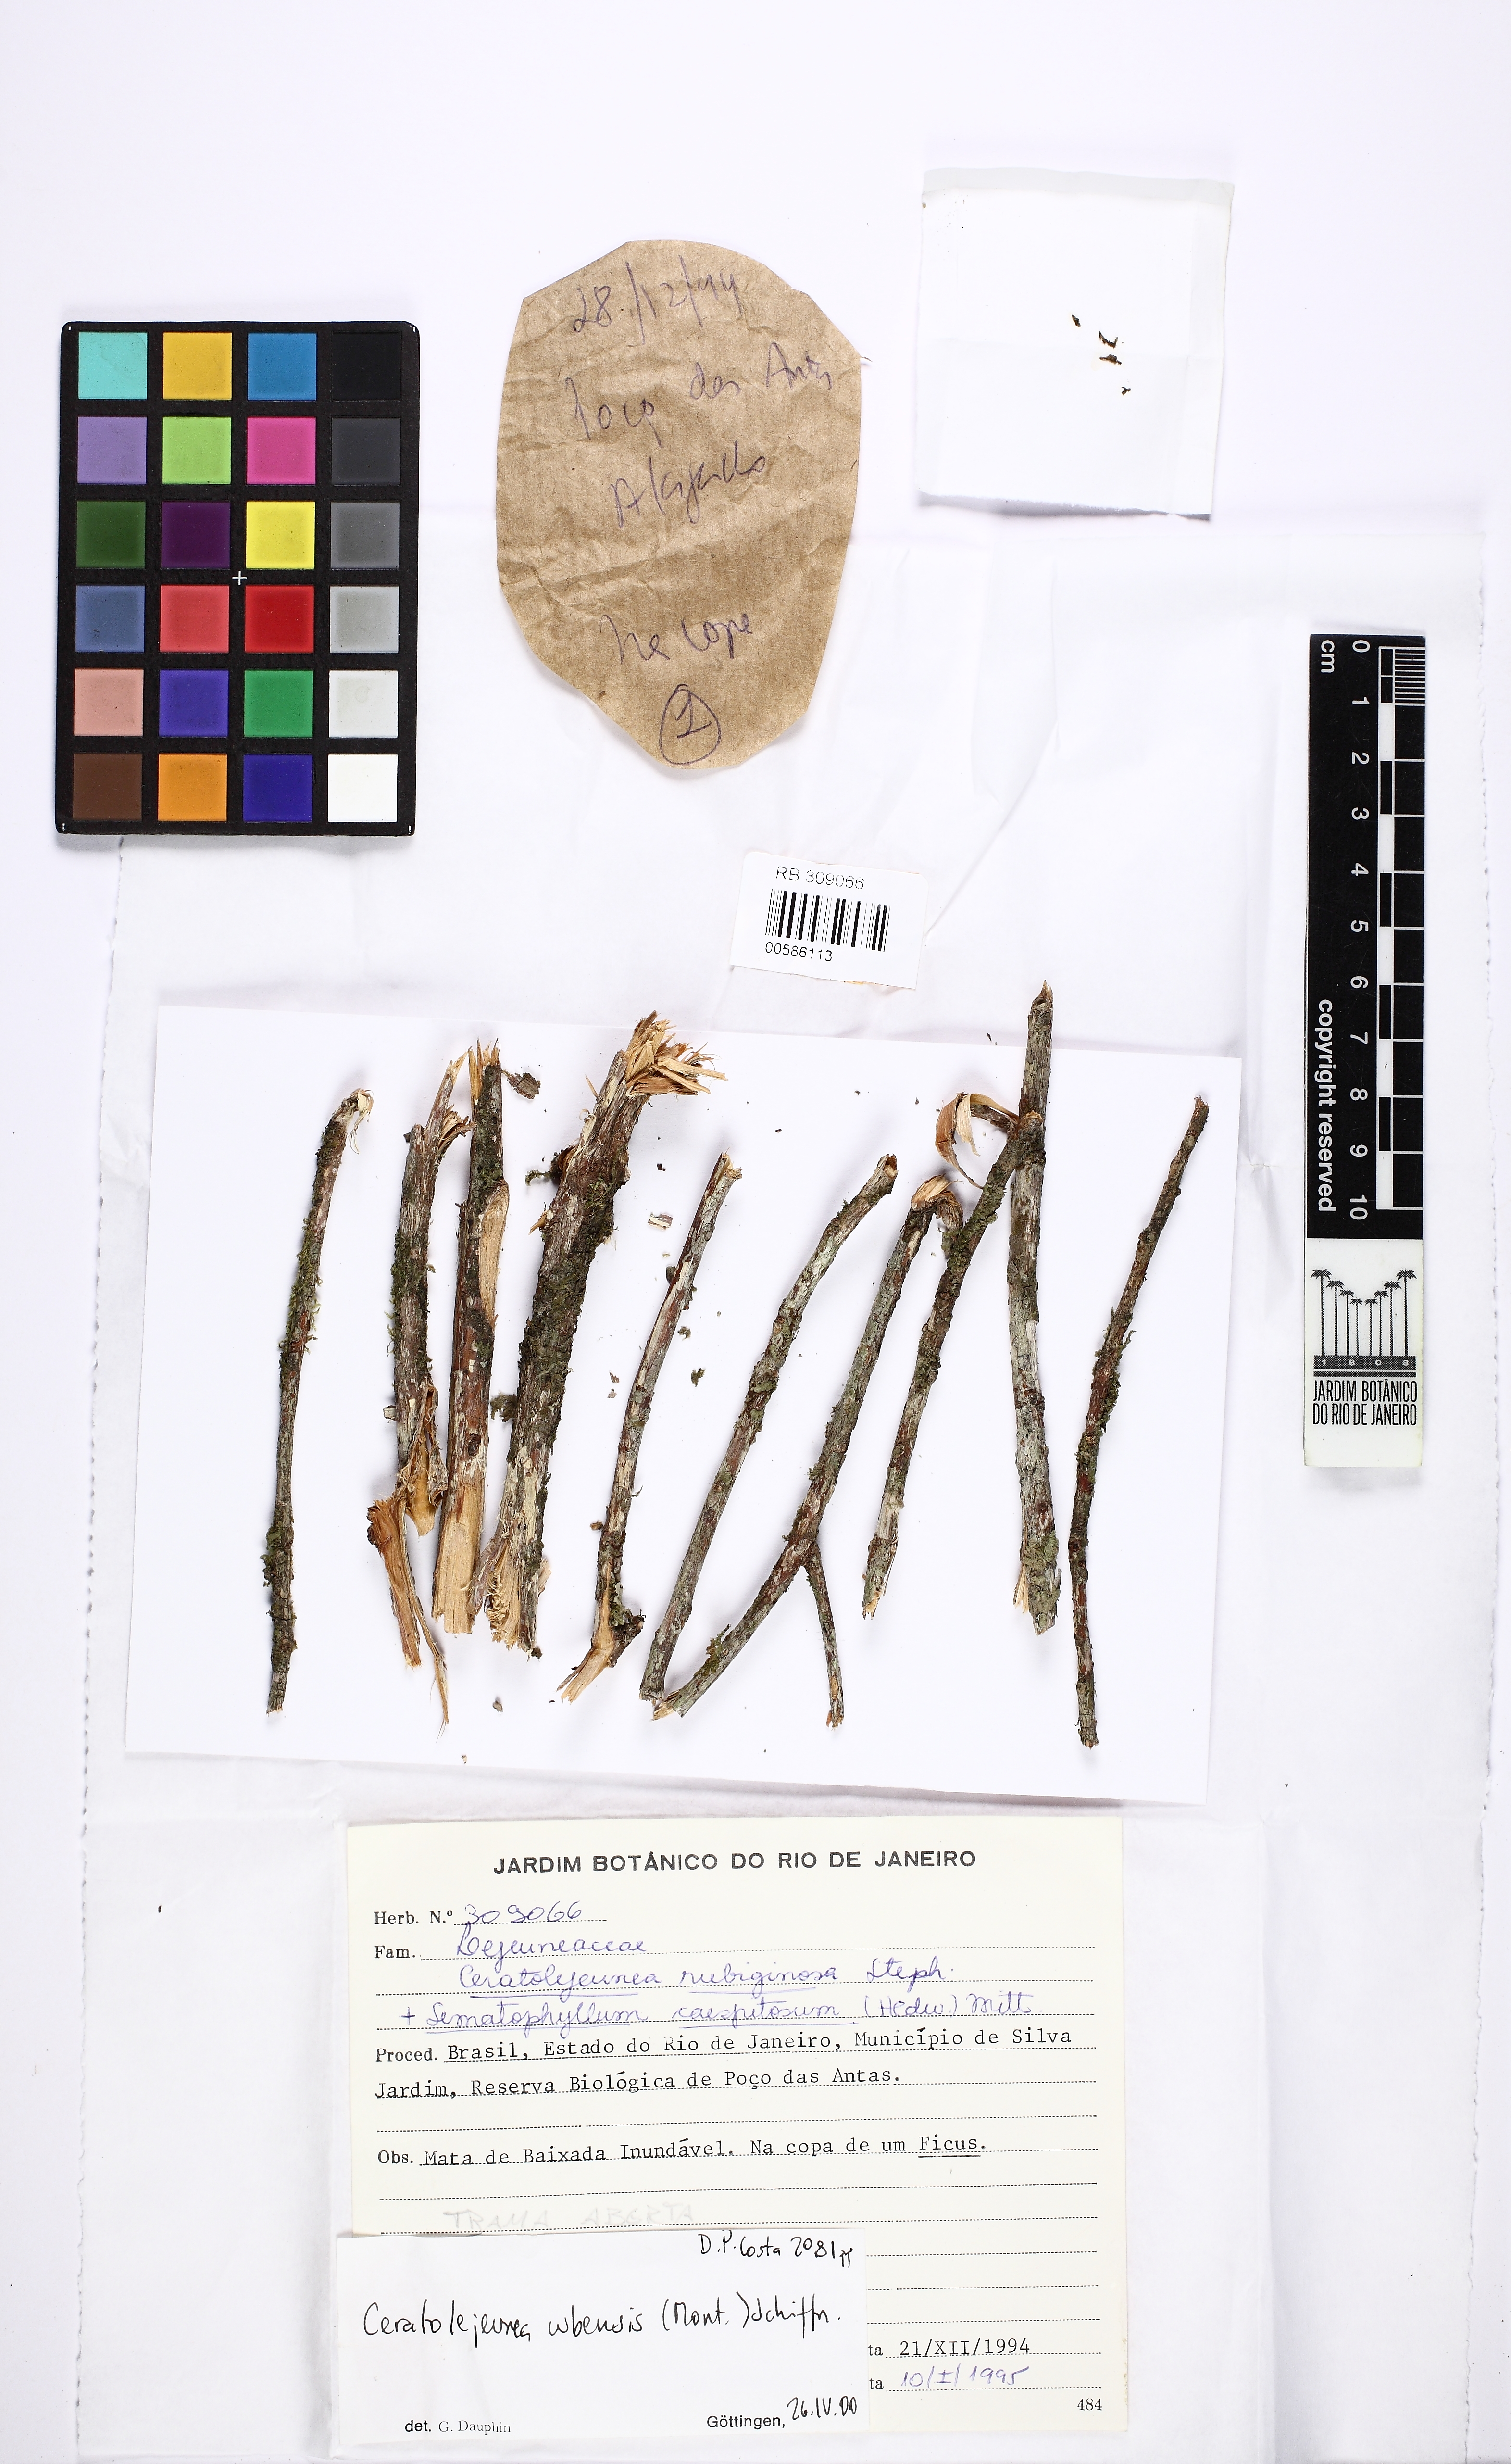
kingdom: Plantae
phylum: Marchantiophyta
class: Jungermanniopsida
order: Porellales
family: Lejeuneaceae
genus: Ceratolejeunea
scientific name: Ceratolejeunea rubiginosa
